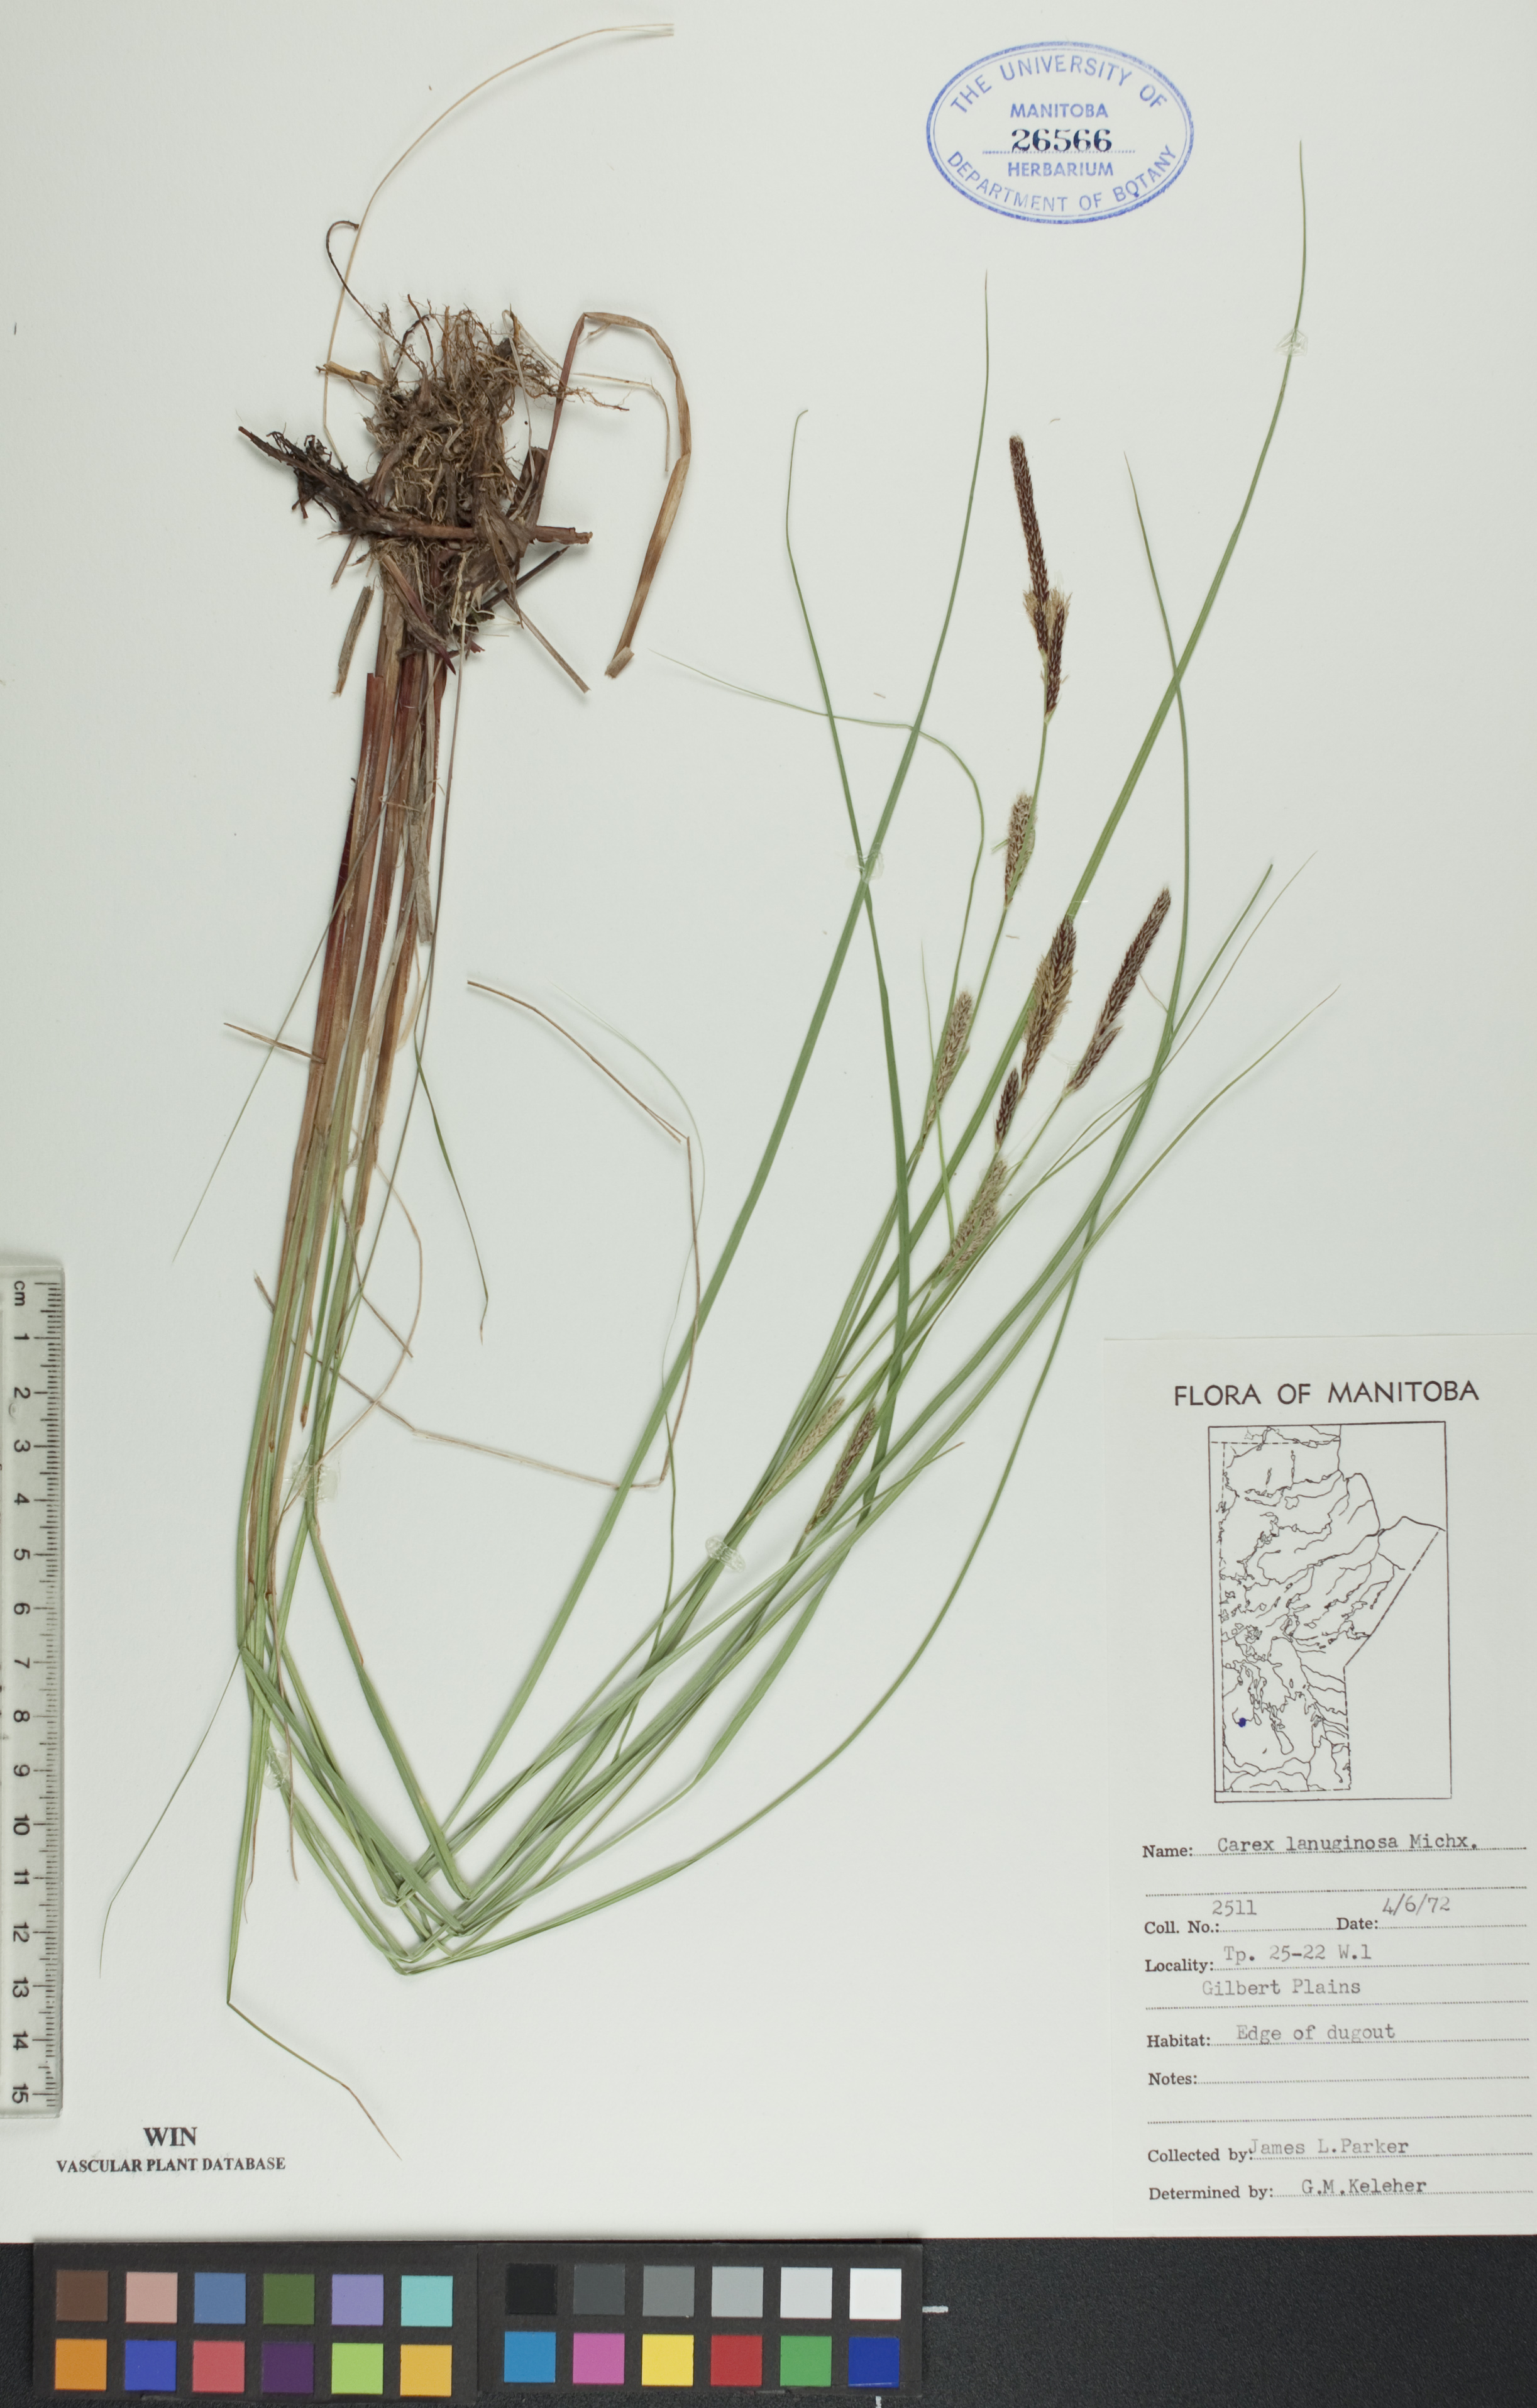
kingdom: Plantae
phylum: Tracheophyta
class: Liliopsida
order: Poales
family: Cyperaceae
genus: Carex
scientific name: Carex lasiocarpa
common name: Slender sedge
